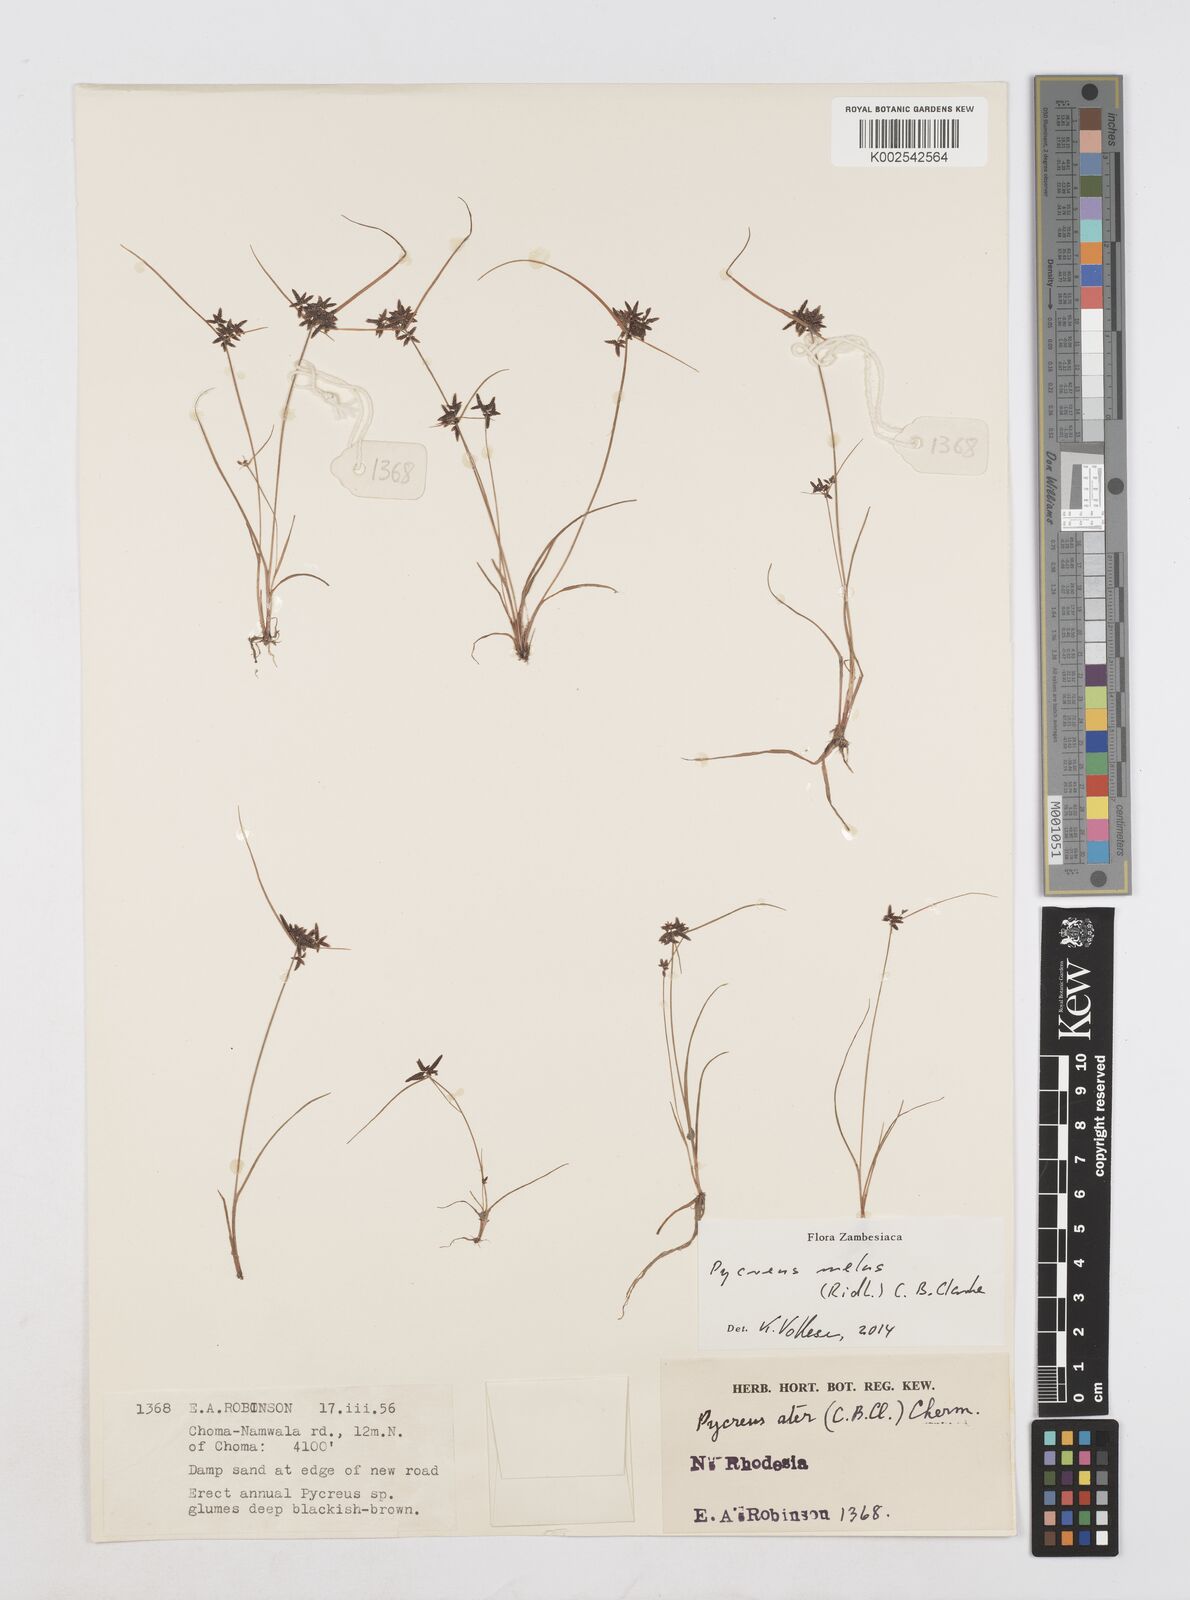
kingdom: Plantae
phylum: Tracheophyta
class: Liliopsida
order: Poales
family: Cyperaceae
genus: Cyperus
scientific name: Cyperus melas
